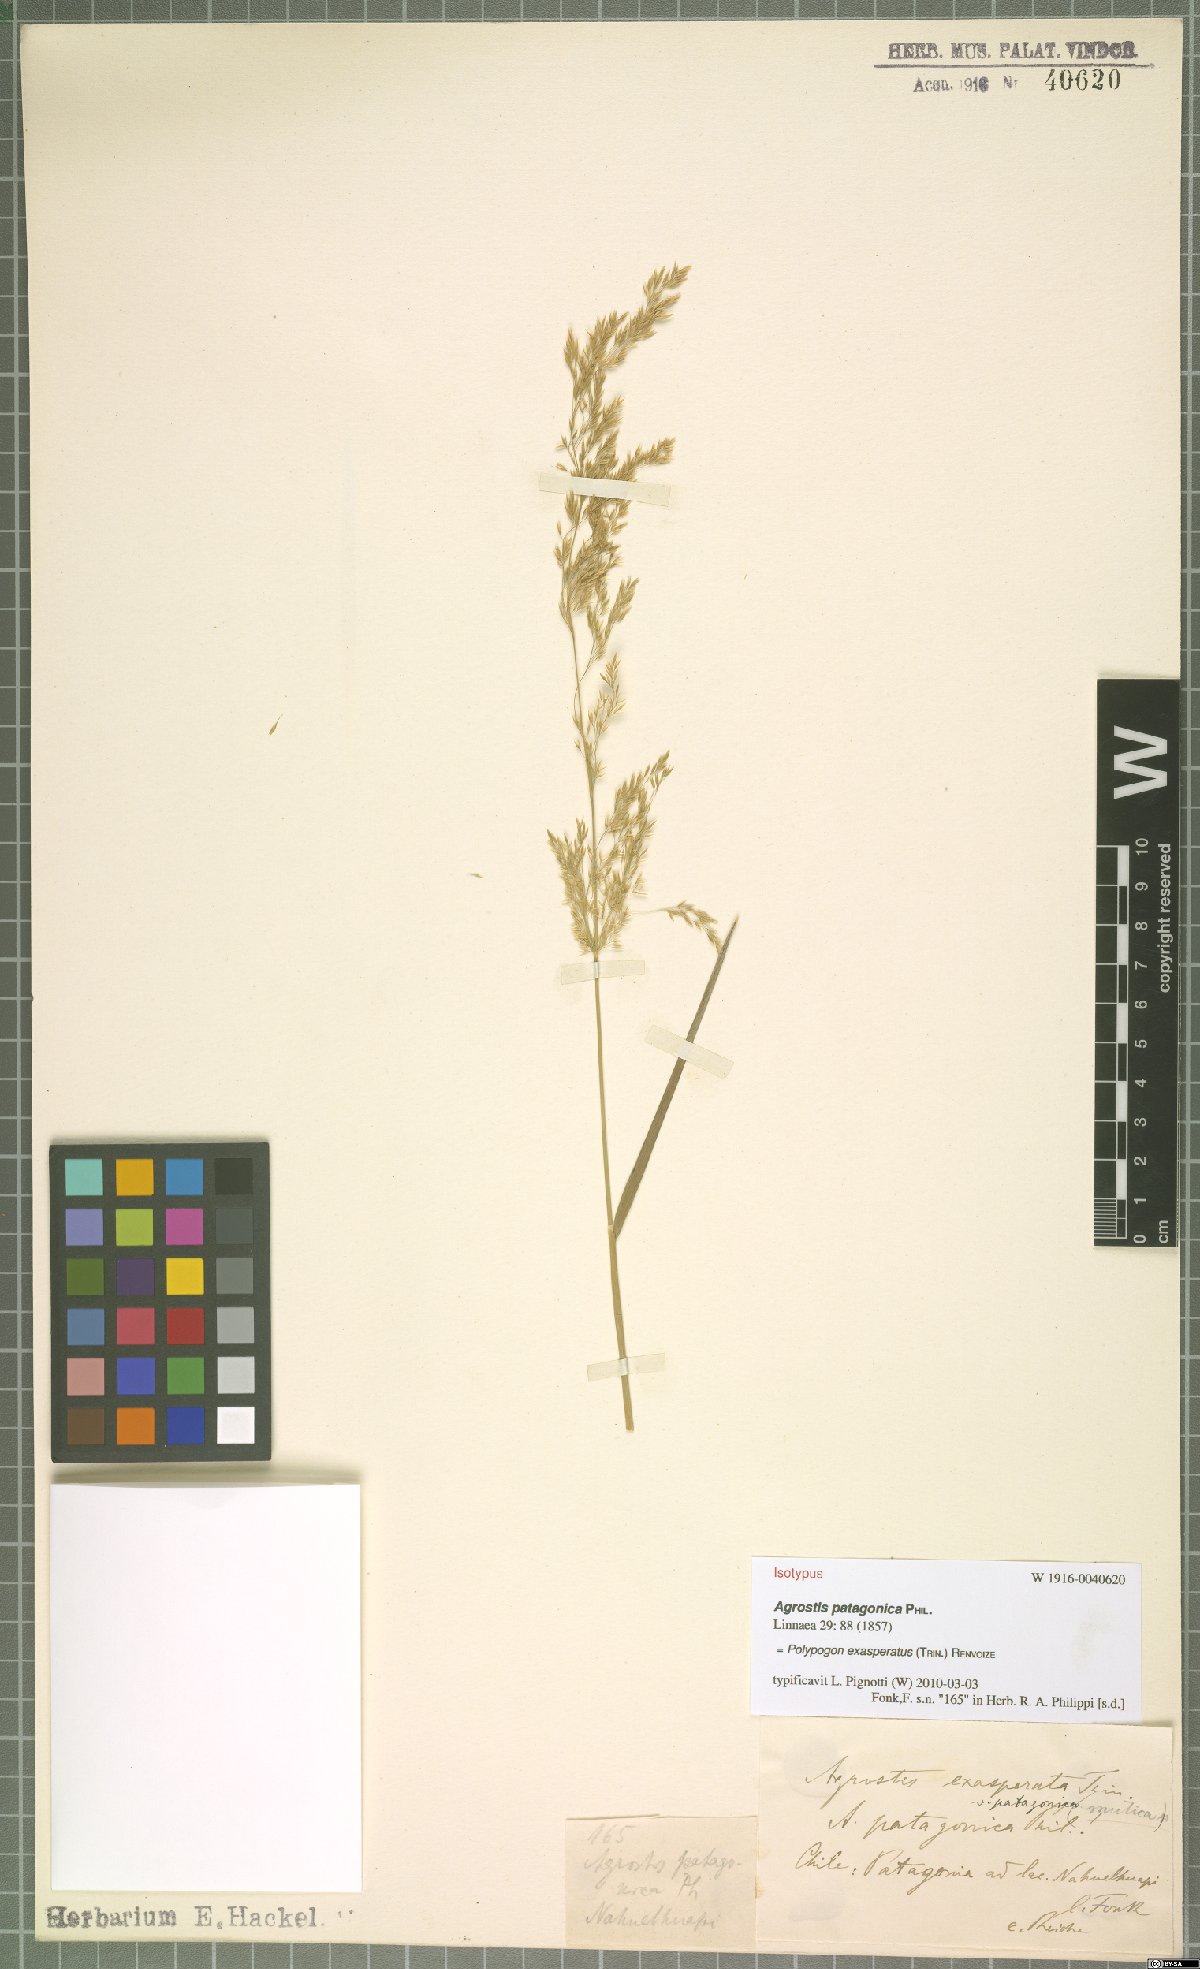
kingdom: Plantae
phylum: Tracheophyta
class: Liliopsida
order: Poales
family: Poaceae
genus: Polypogon
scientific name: Polypogon exasperatus
